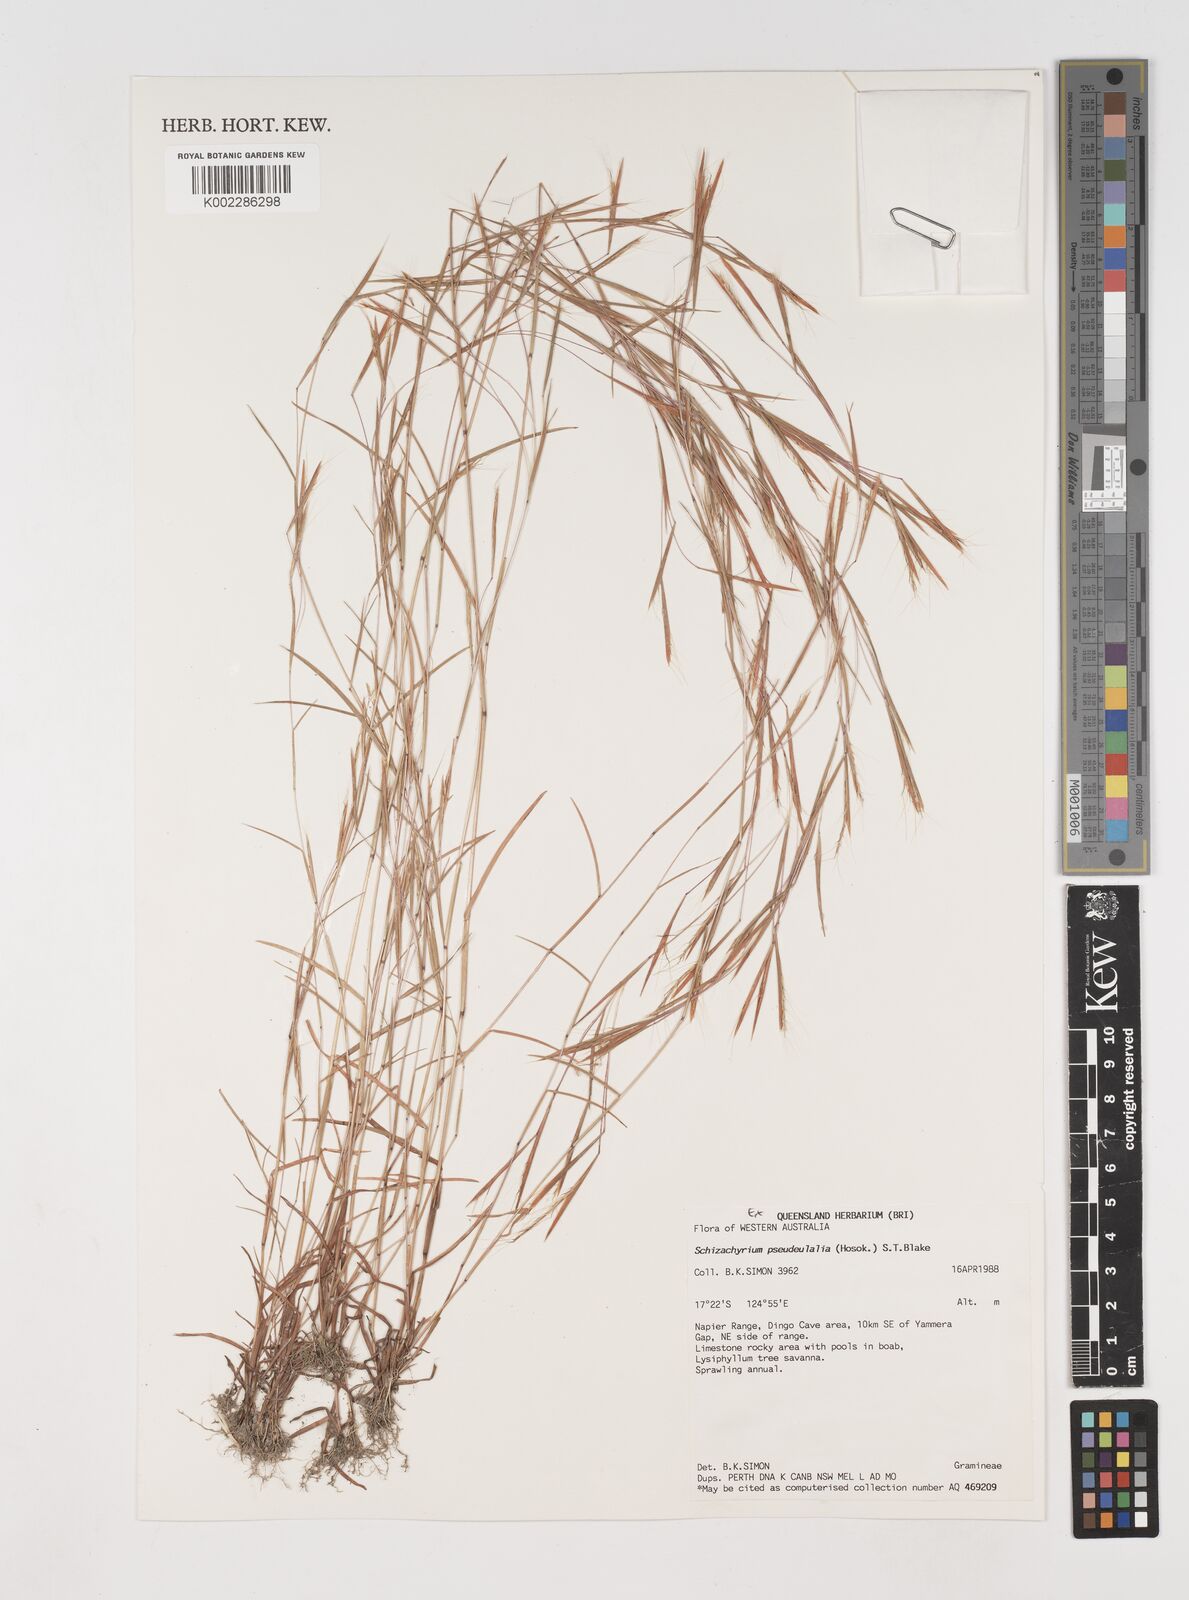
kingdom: Plantae
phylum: Tracheophyta
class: Liliopsida
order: Poales
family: Poaceae
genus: Schizachyrium
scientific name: Schizachyrium pseudeulalia
